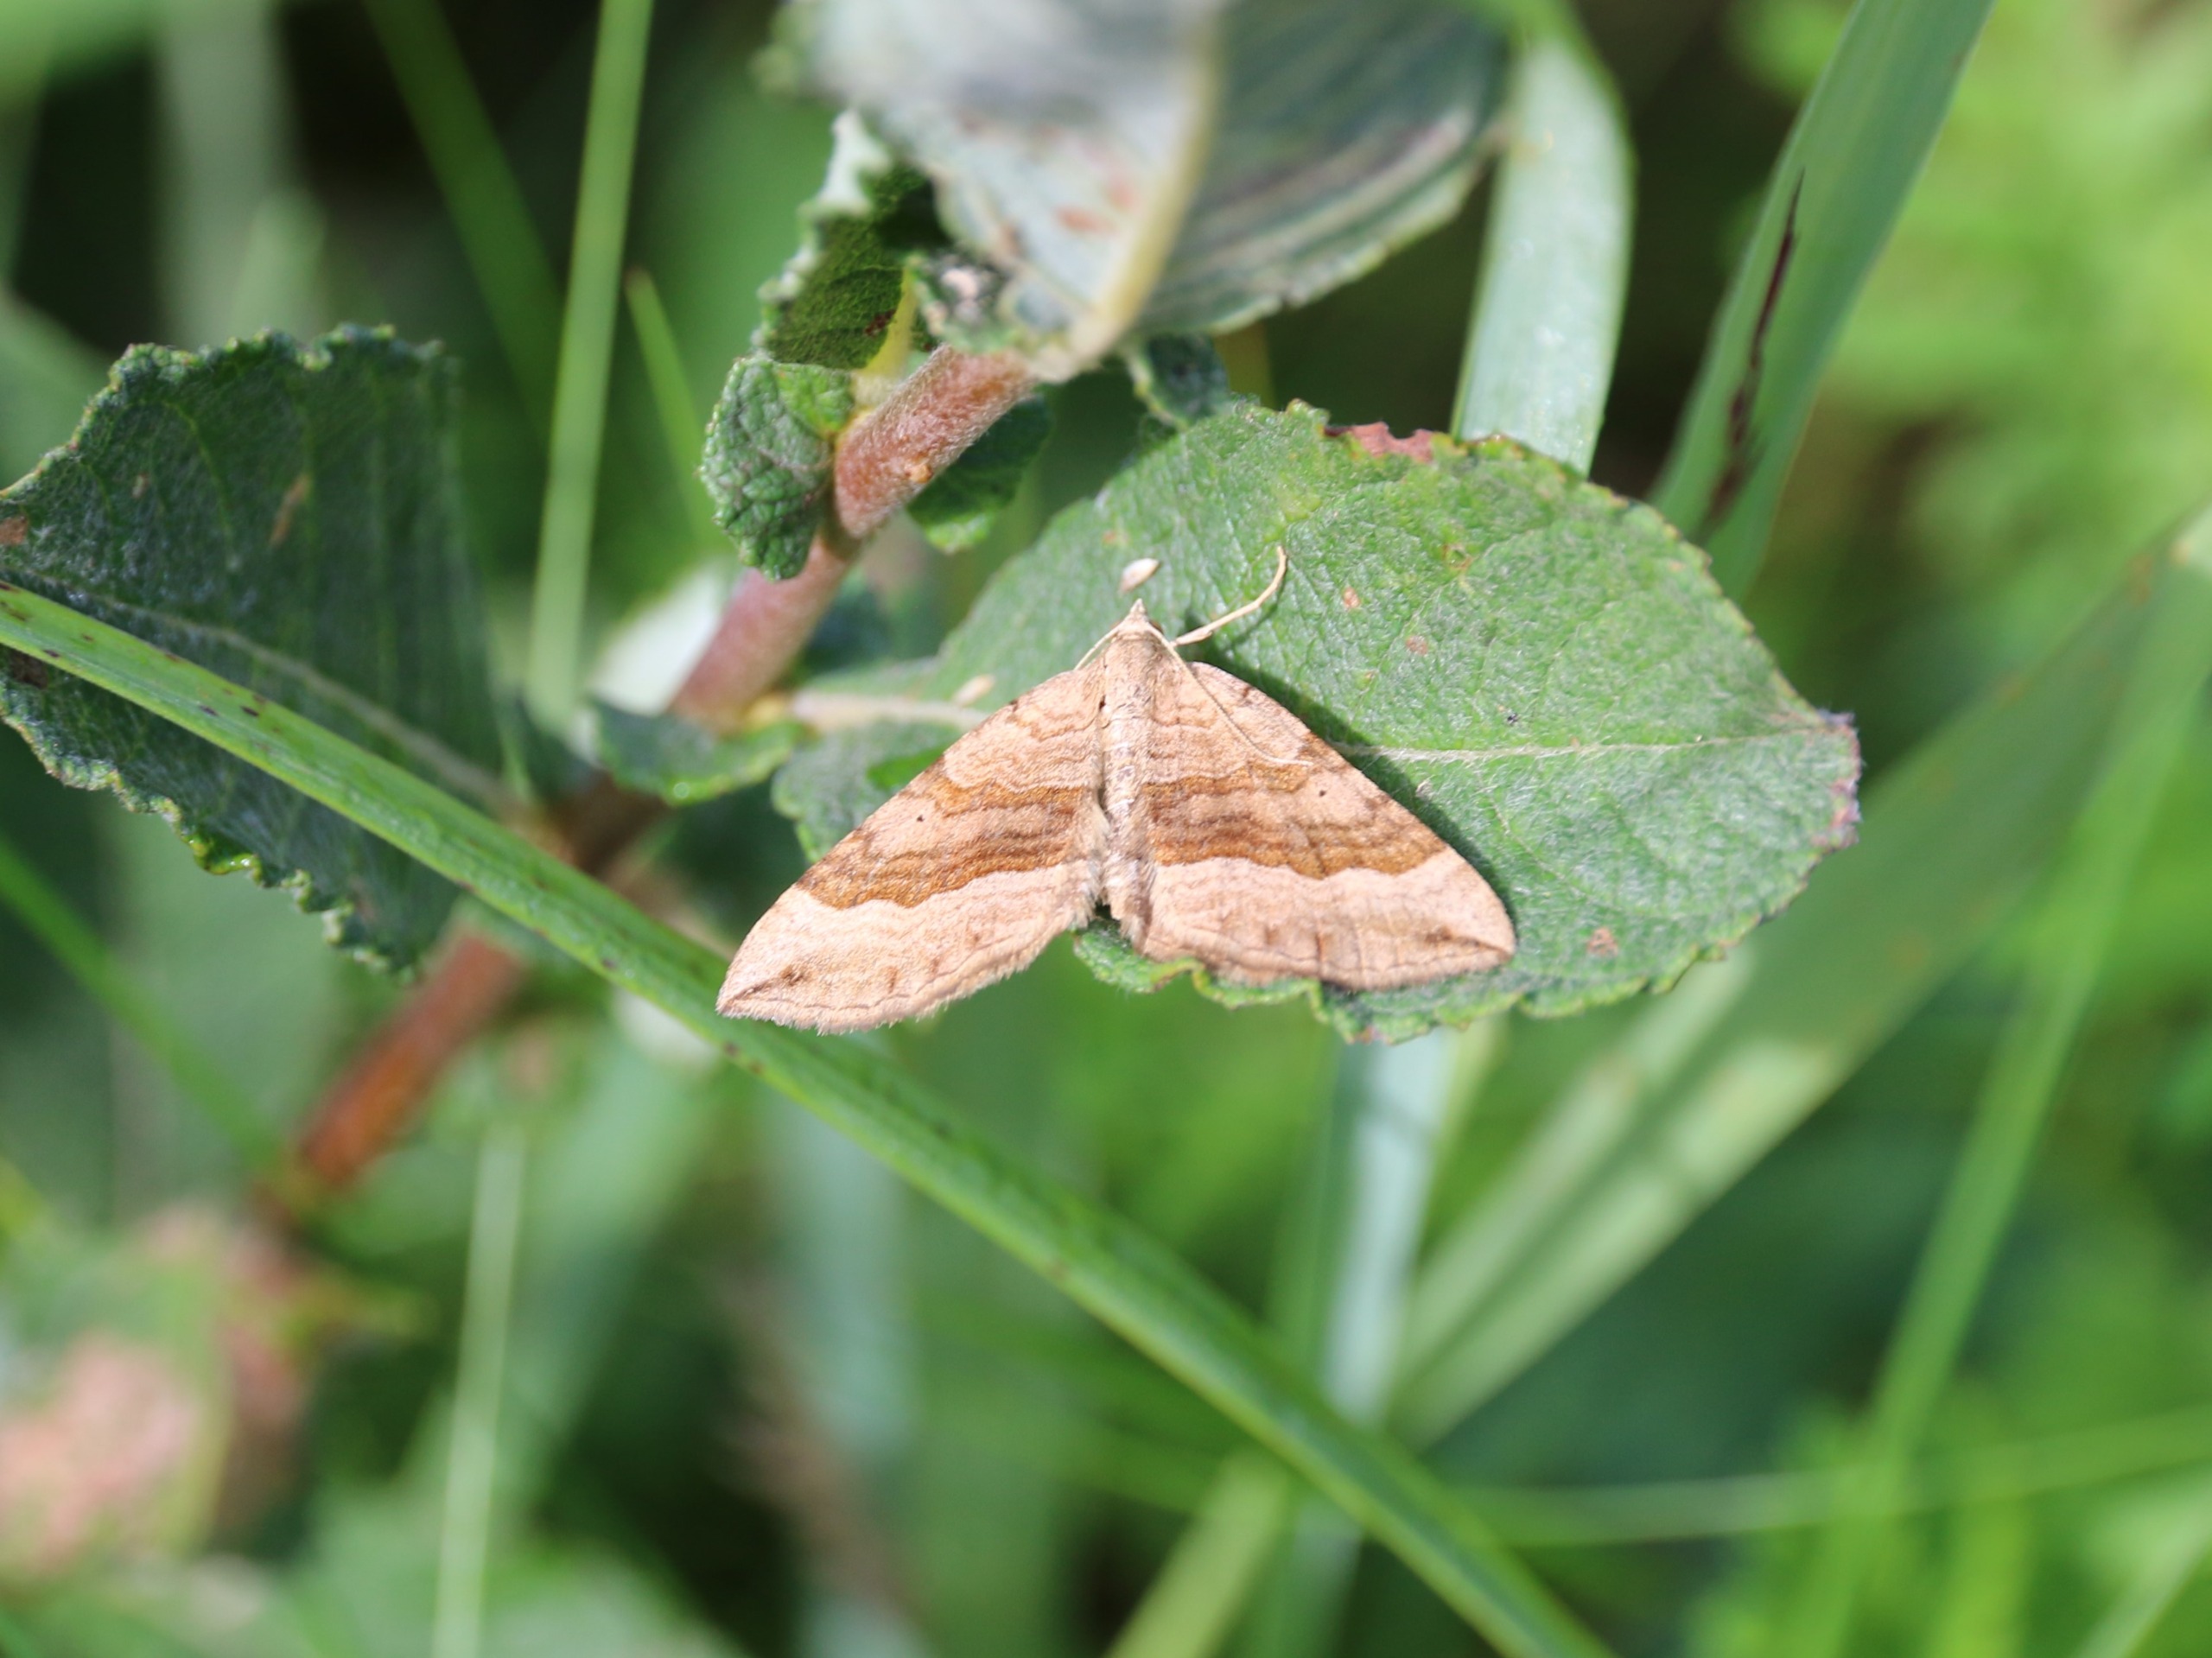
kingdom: Animalia
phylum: Arthropoda
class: Insecta
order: Lepidoptera
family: Geometridae
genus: Scotopteryx
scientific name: Scotopteryx chenopodiata
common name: Almindelig spidsvingemåler
